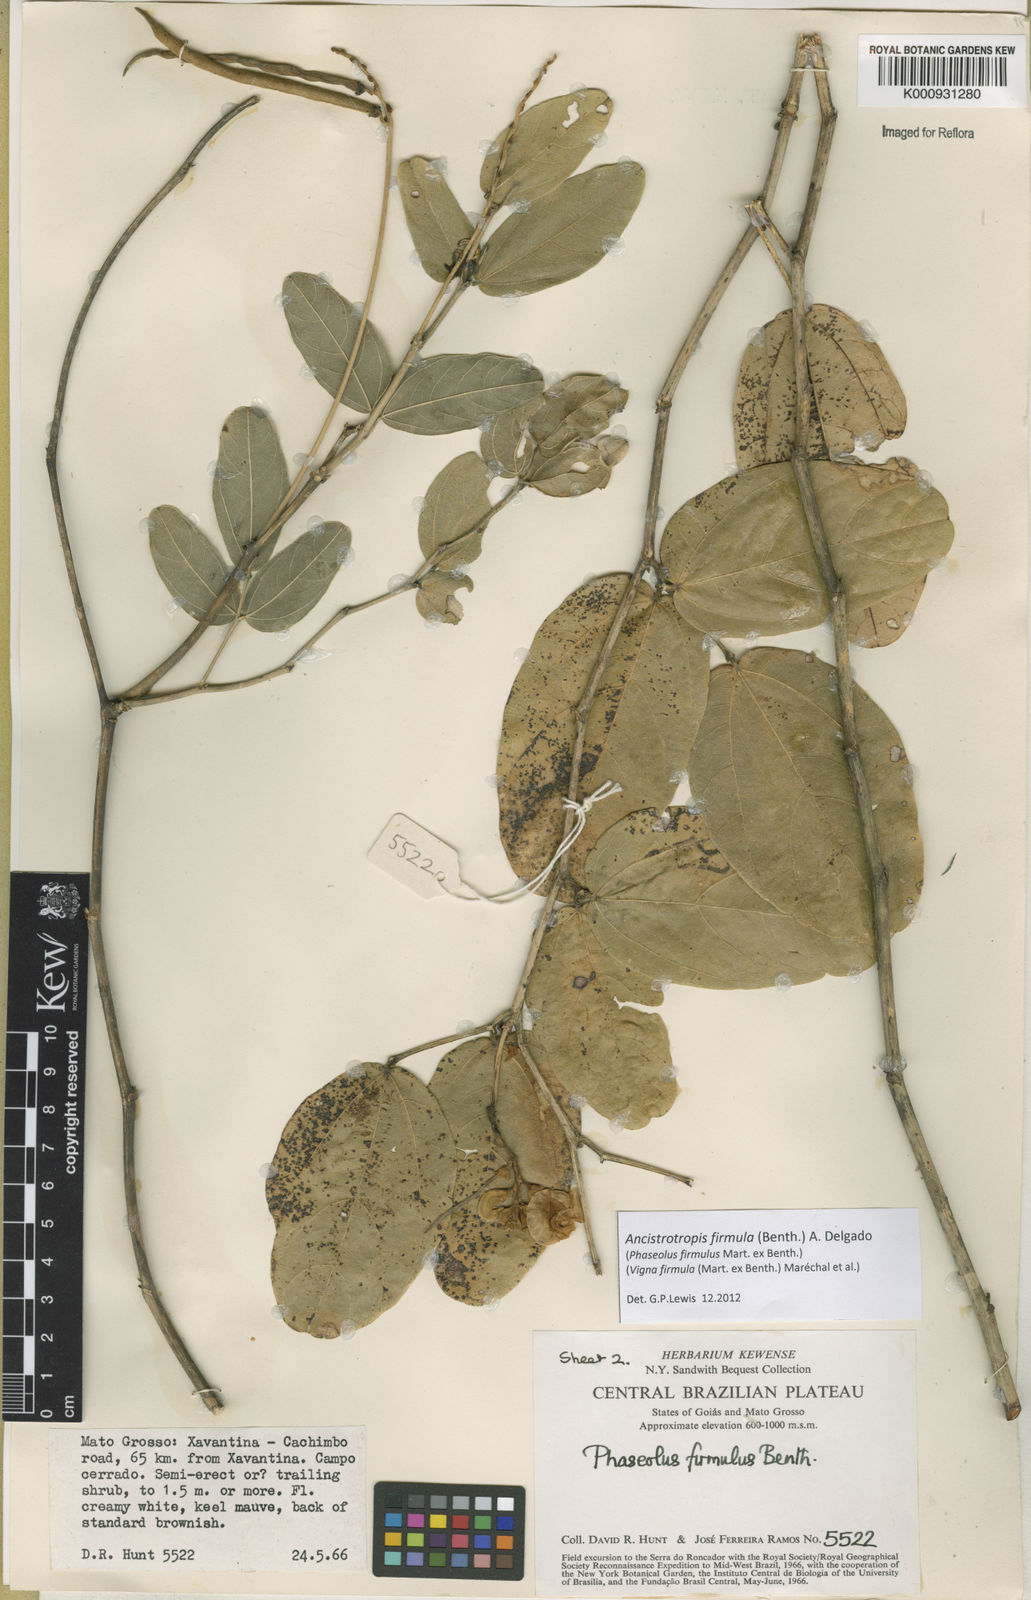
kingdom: Plantae
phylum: Tracheophyta
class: Magnoliopsida
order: Fabales
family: Fabaceae
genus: Ancistrotropis
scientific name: Ancistrotropis firmula
